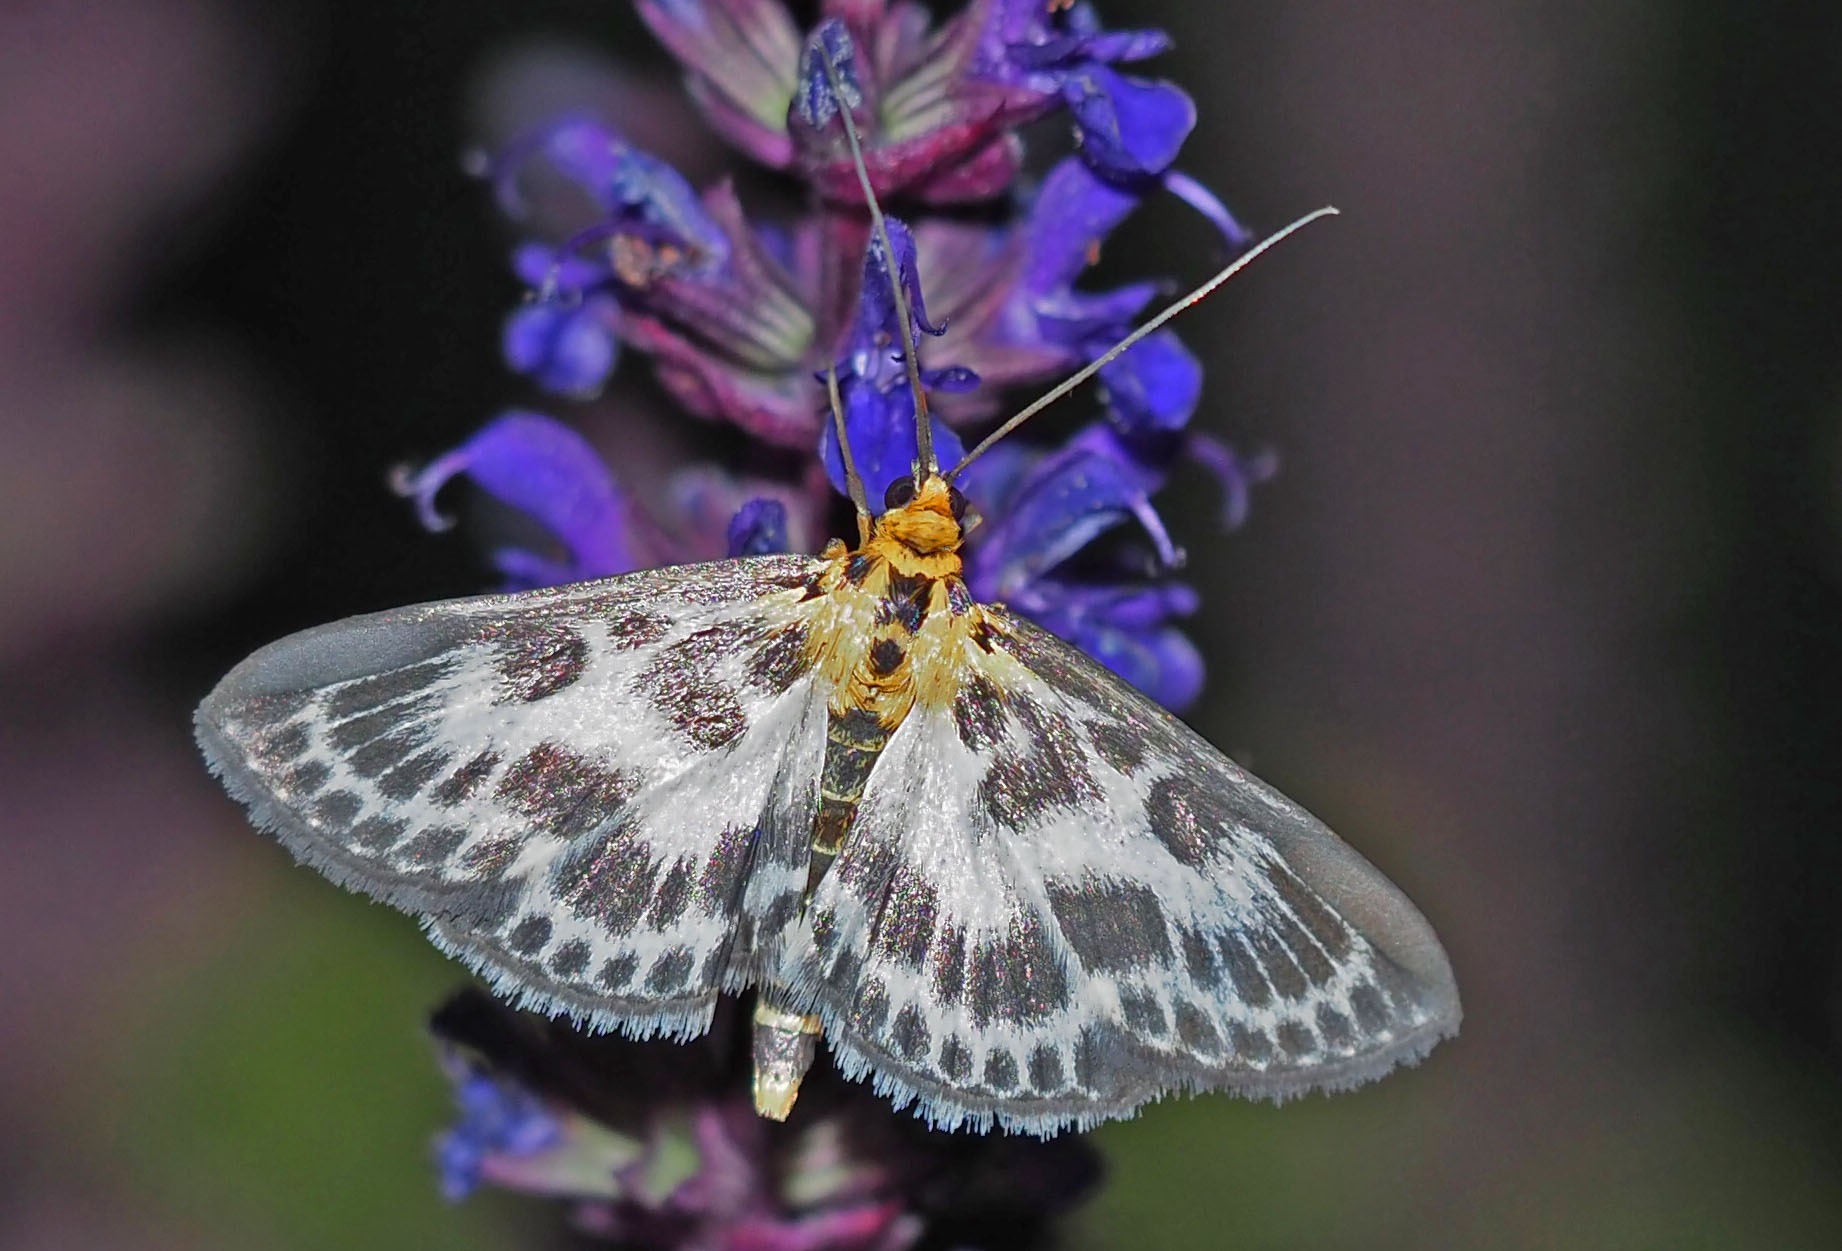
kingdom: Animalia
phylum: Arthropoda
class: Insecta
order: Lepidoptera
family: Crambidae
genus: Anania
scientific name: Anania hortulata
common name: Nældehalvmøl
